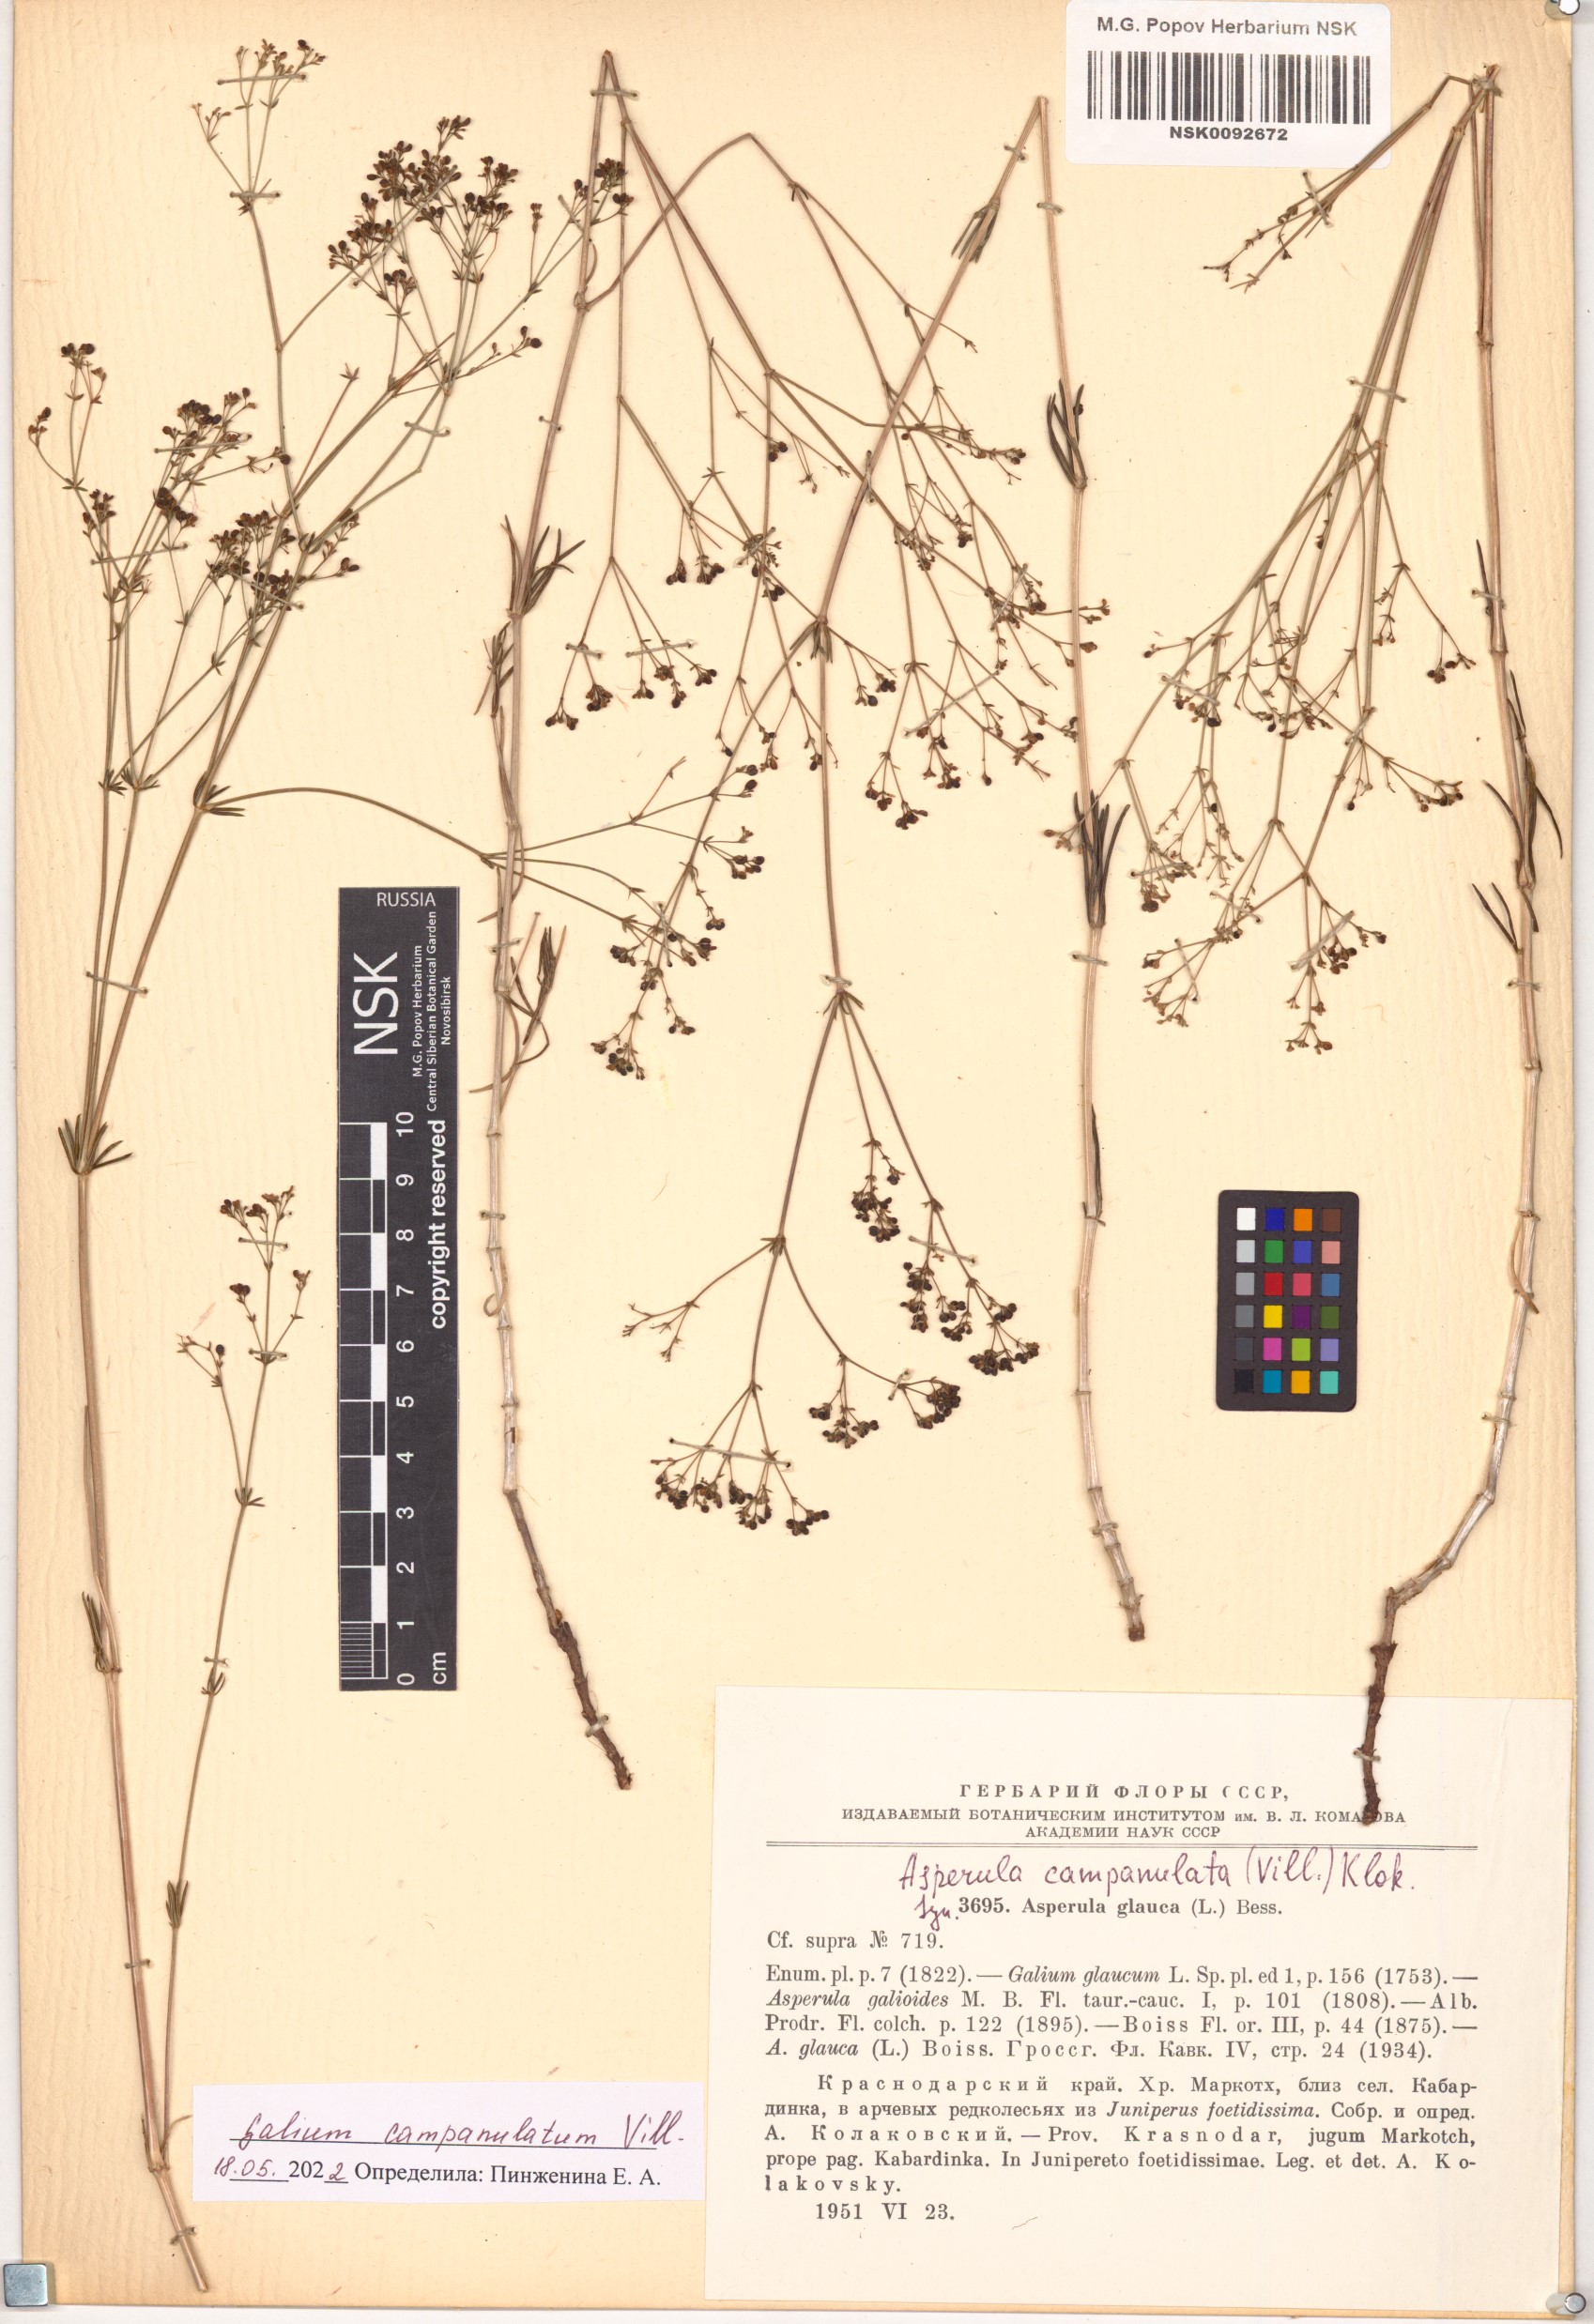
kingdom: Plantae
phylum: Tracheophyta
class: Magnoliopsida
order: Gentianales
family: Rubiaceae
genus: Galium
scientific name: Galium glaucum
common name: Waxy bedstraw
